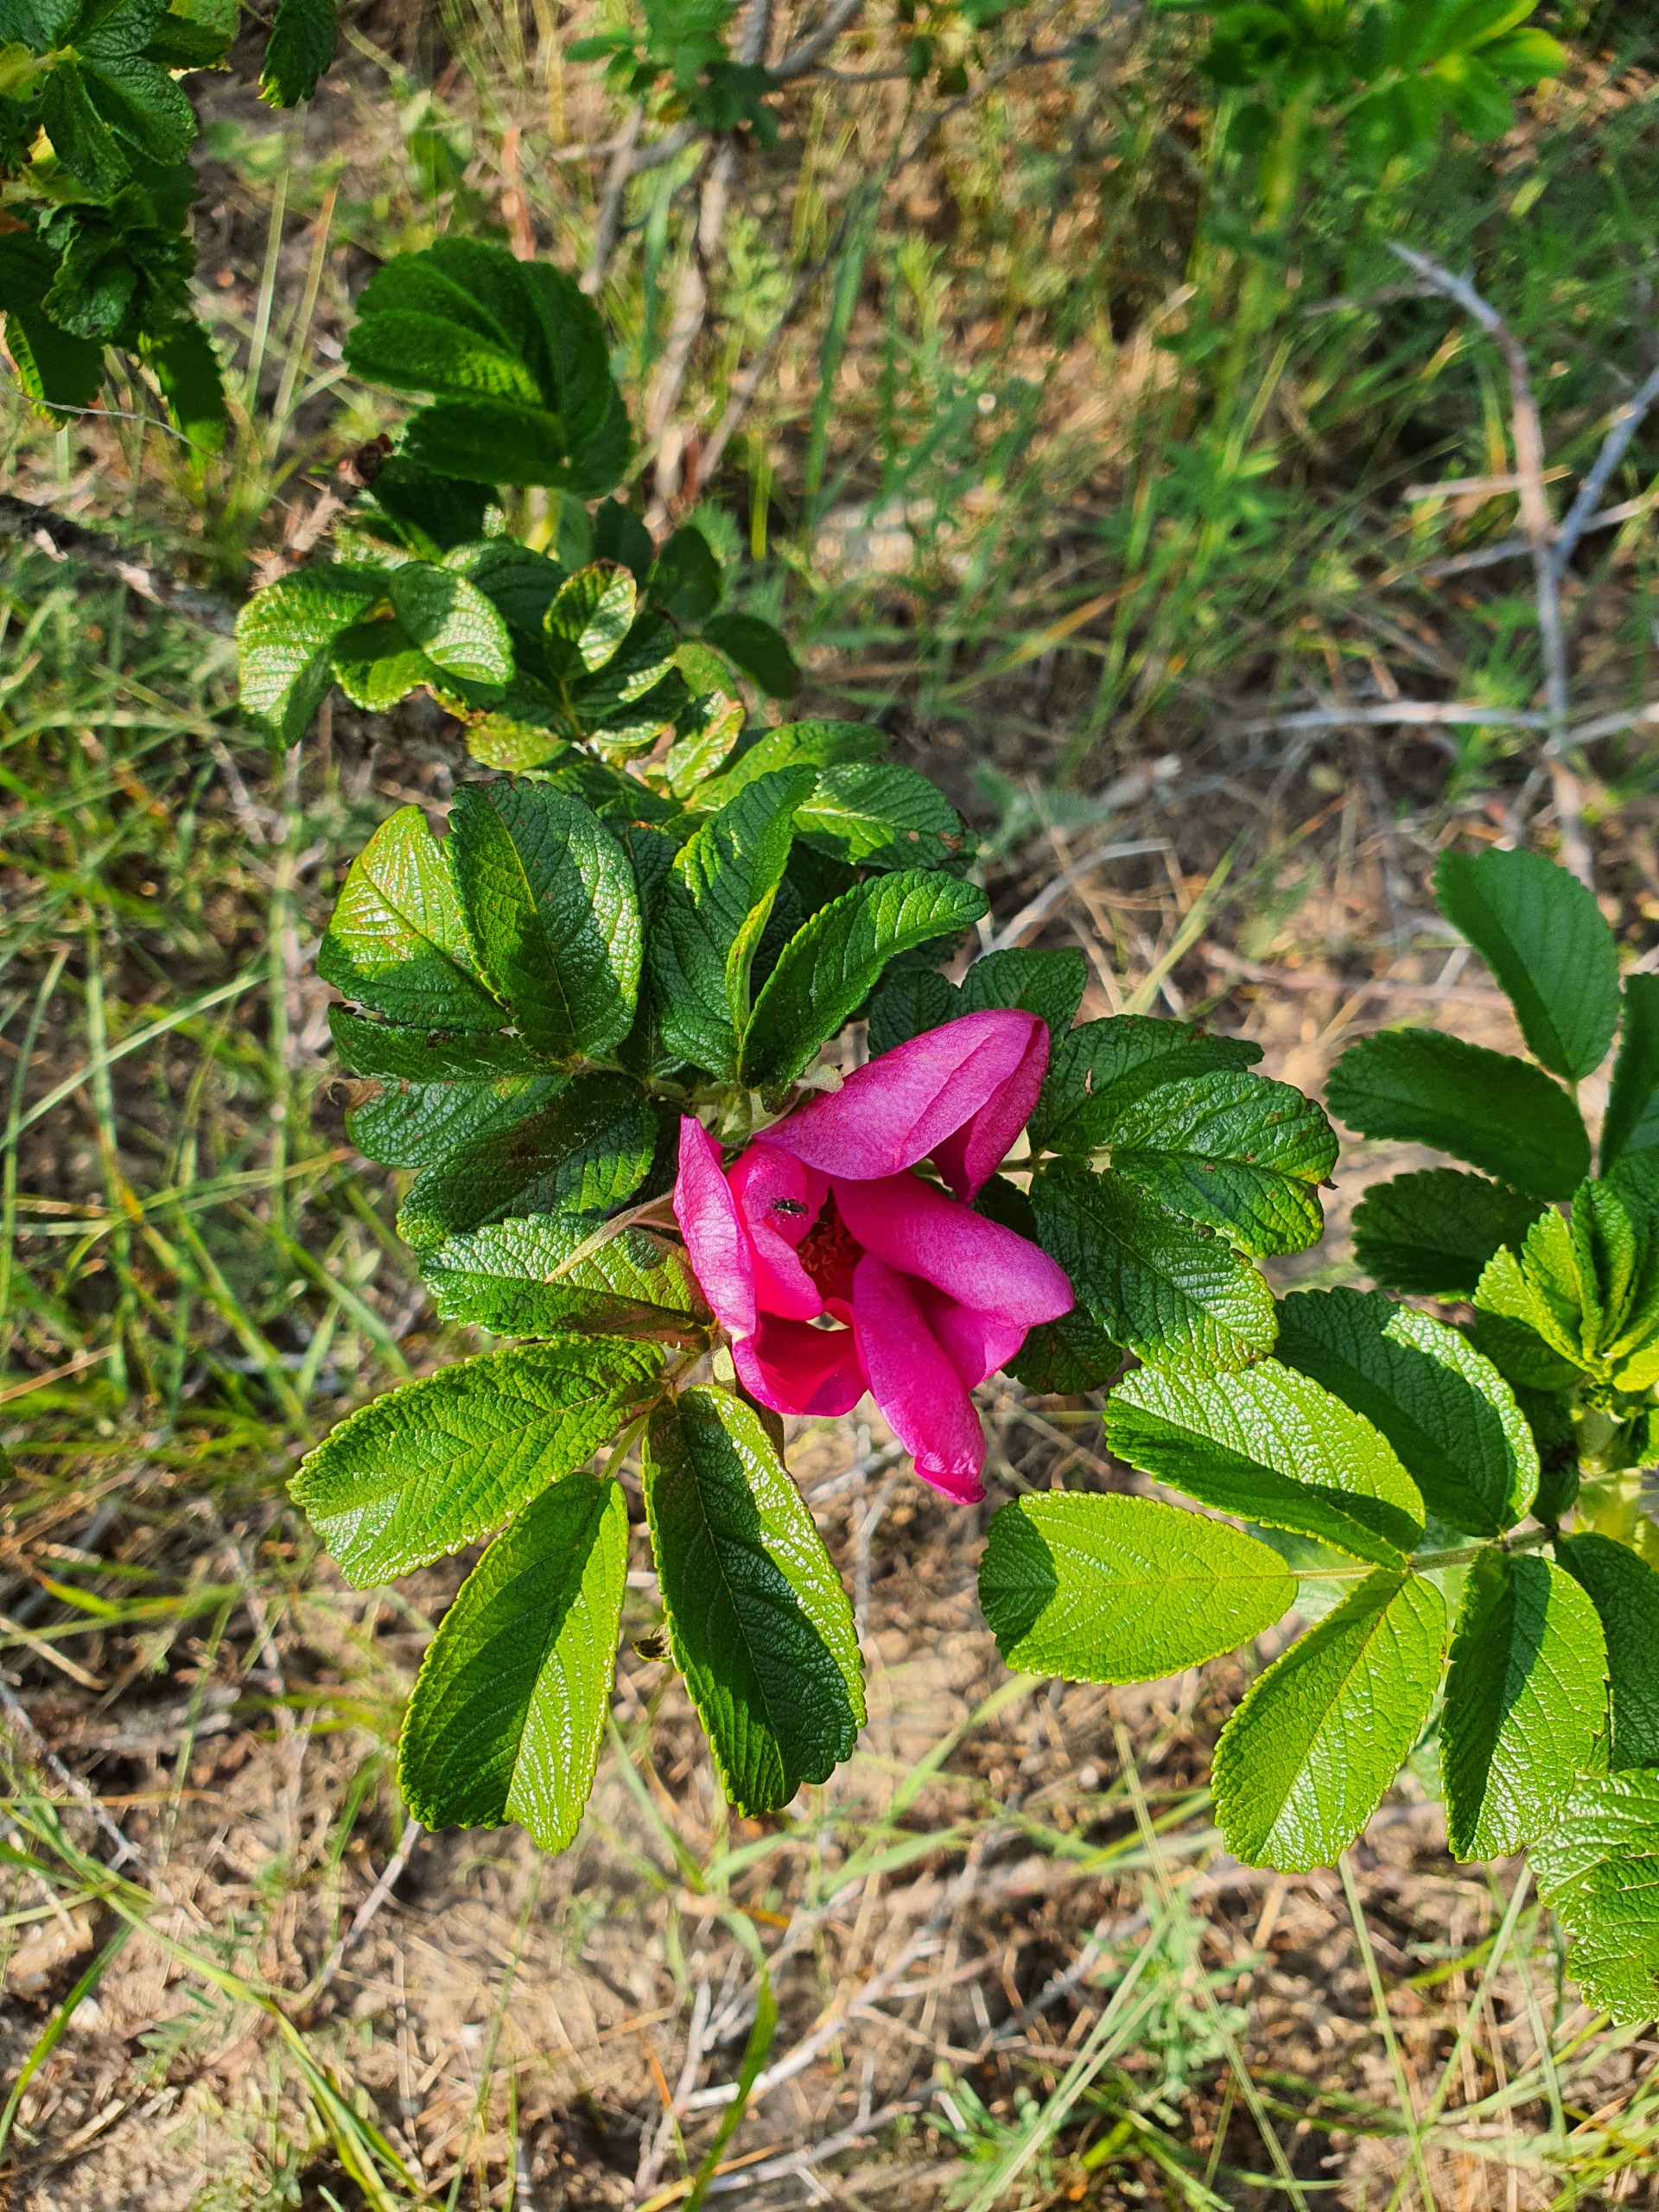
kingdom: Plantae
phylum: Tracheophyta
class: Magnoliopsida
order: Rosales
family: Rosaceae
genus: Rosa
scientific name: Rosa rugosa
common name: Rynket rose
